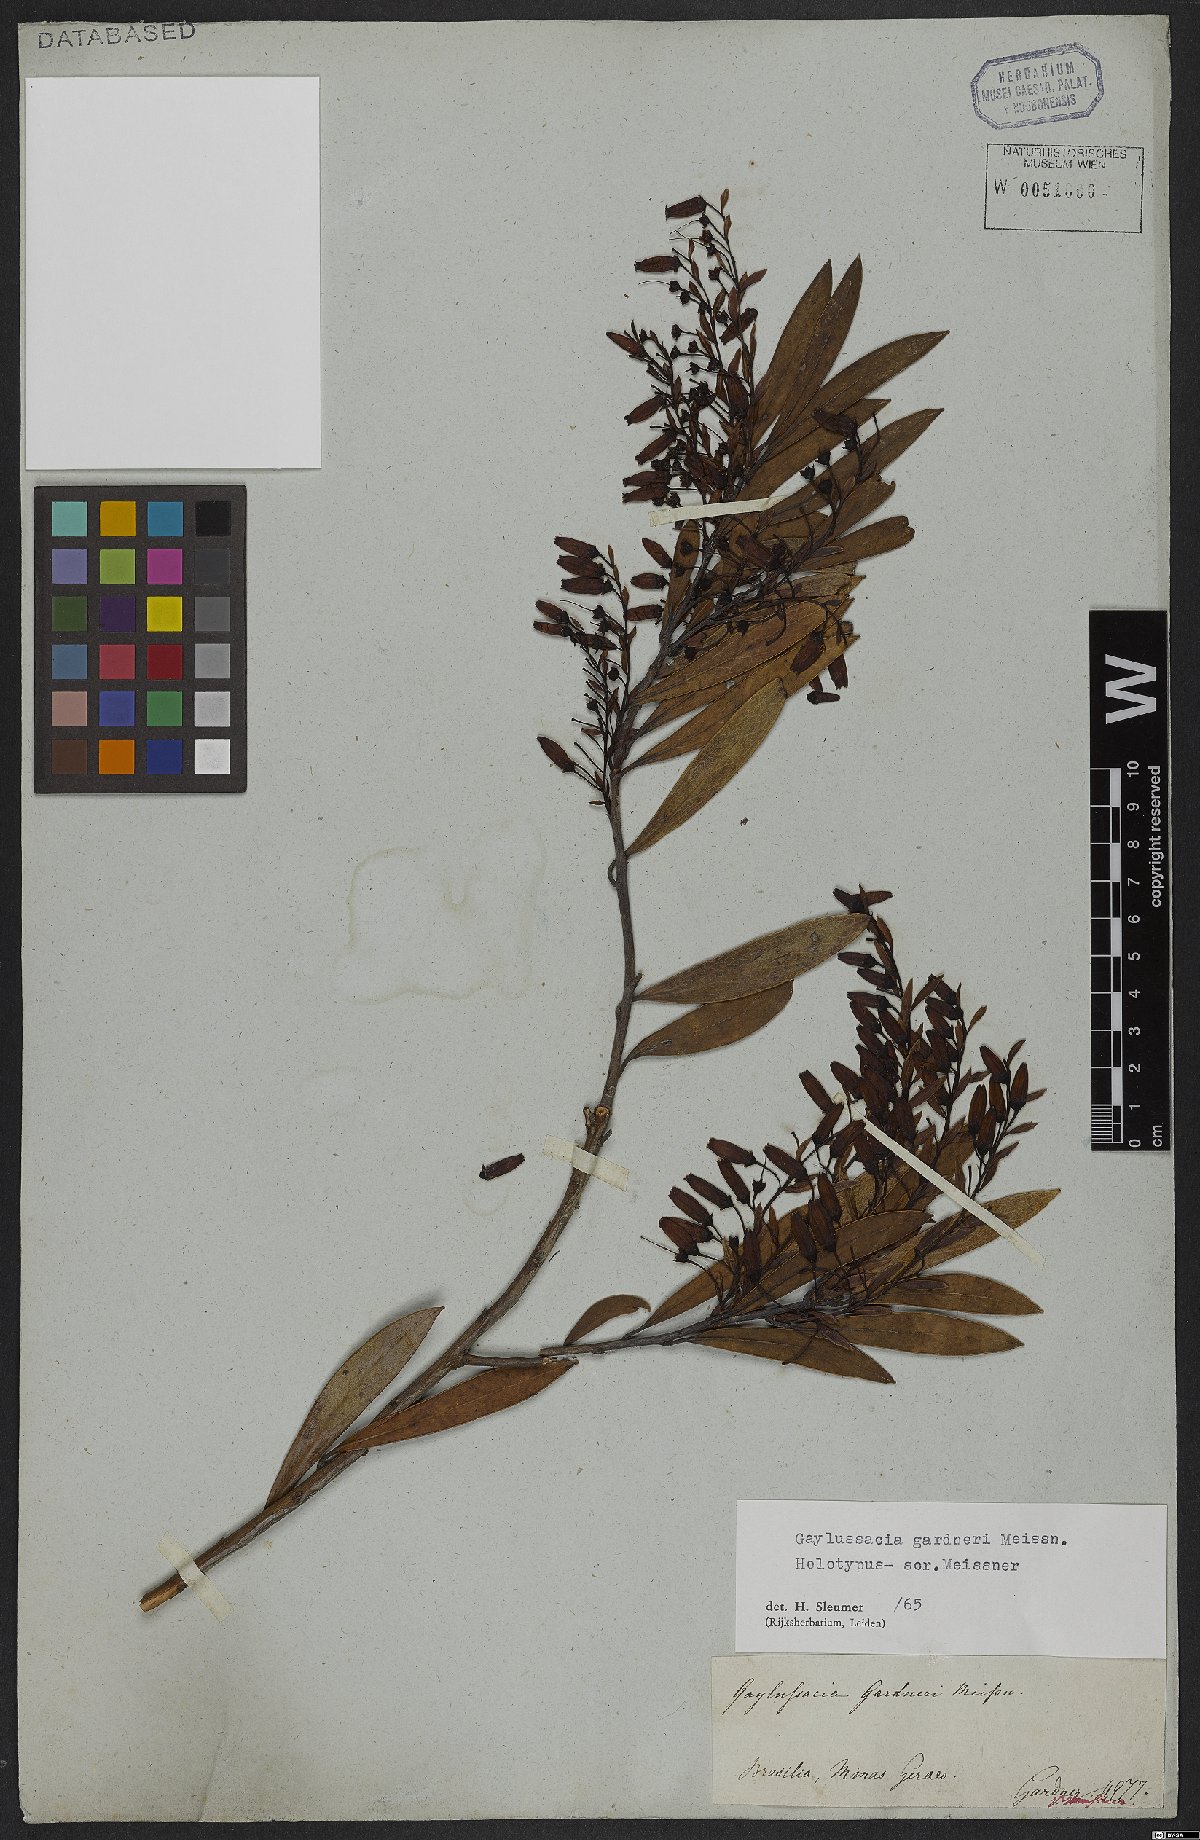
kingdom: Plantae
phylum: Tracheophyta
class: Magnoliopsida
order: Ericales
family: Ericaceae
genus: Gaylussacia
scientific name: Gaylussacia gardneri
